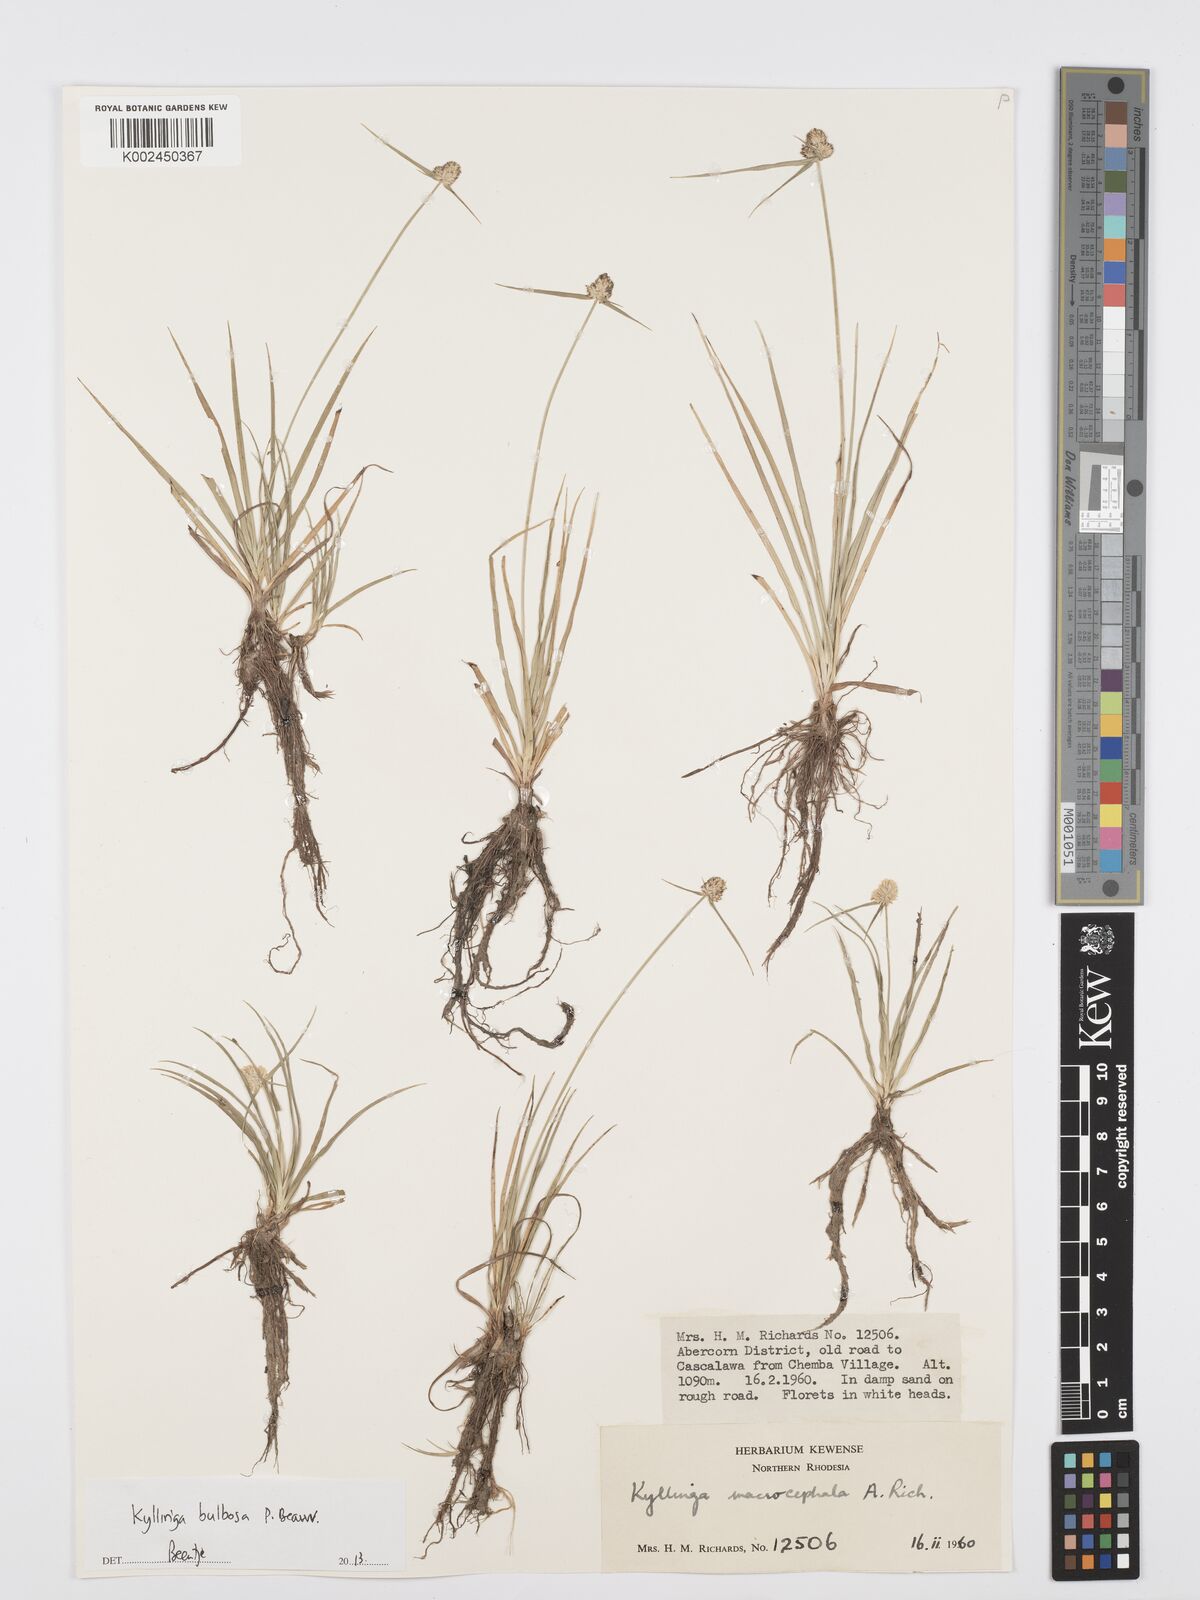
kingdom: Plantae
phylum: Tracheophyta
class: Liliopsida
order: Poales
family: Cyperaceae
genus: Cyperus
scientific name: Cyperus
